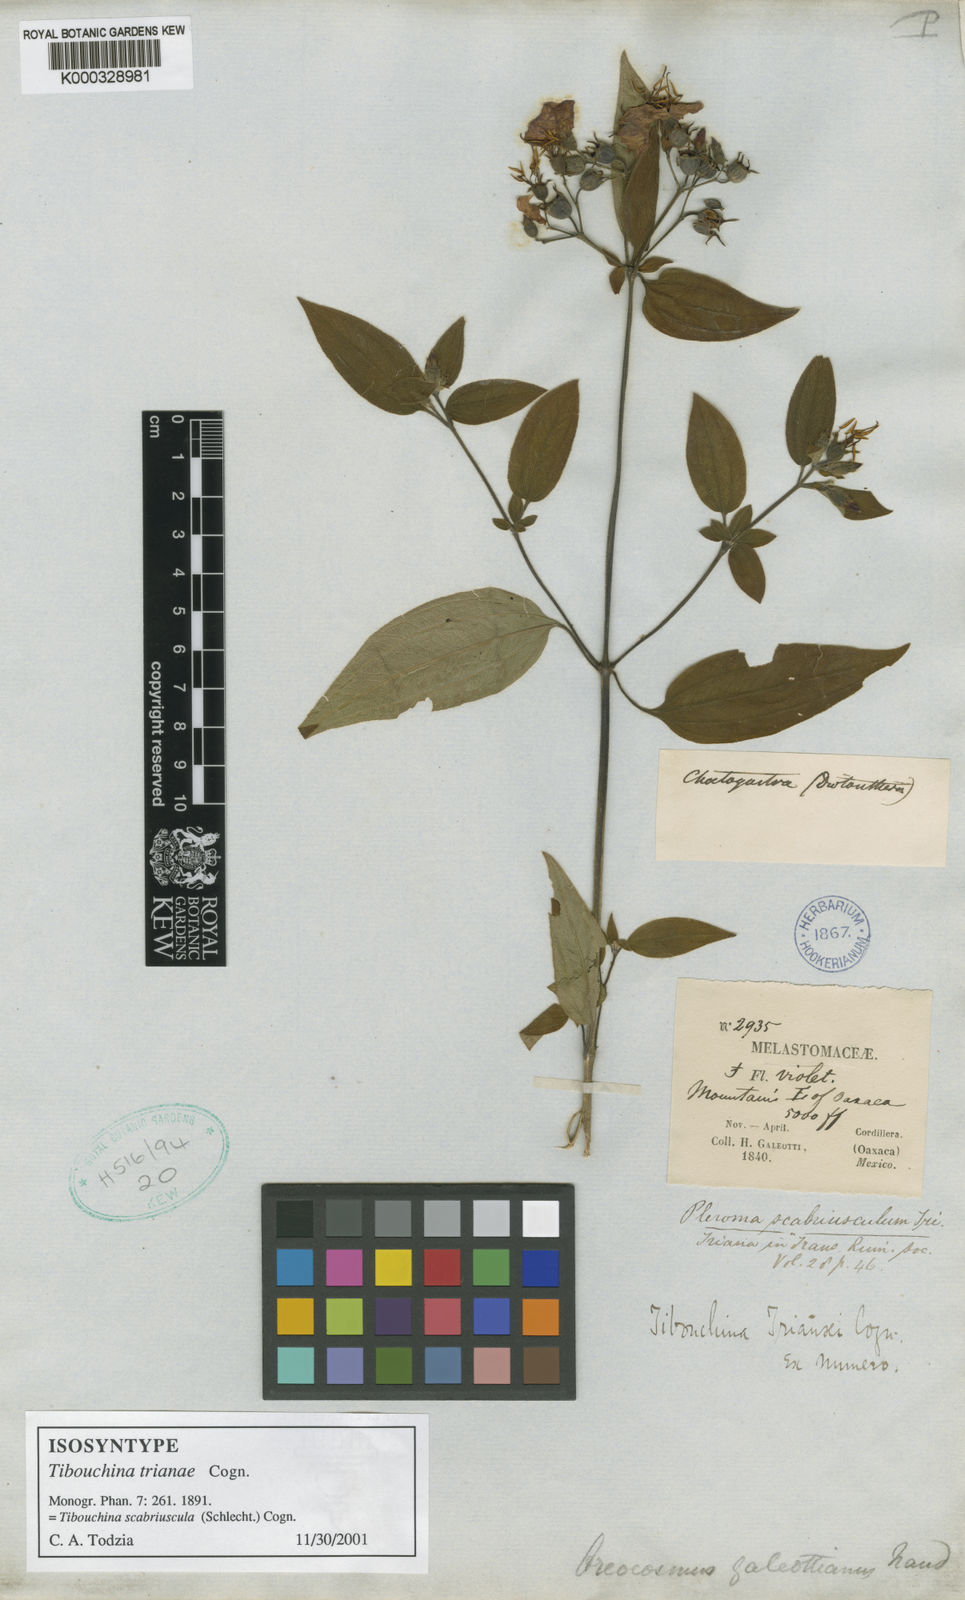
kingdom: Plantae
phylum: Tracheophyta
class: Magnoliopsida
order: Myrtales
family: Melastomataceae
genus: Chaetogastra
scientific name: Chaetogastra scabriuscula
